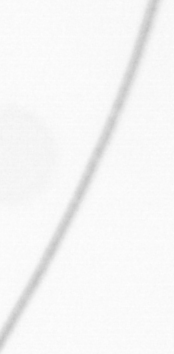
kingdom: Chromista
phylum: Ochrophyta
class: Bacillariophyceae
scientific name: Bacillariophyceae
